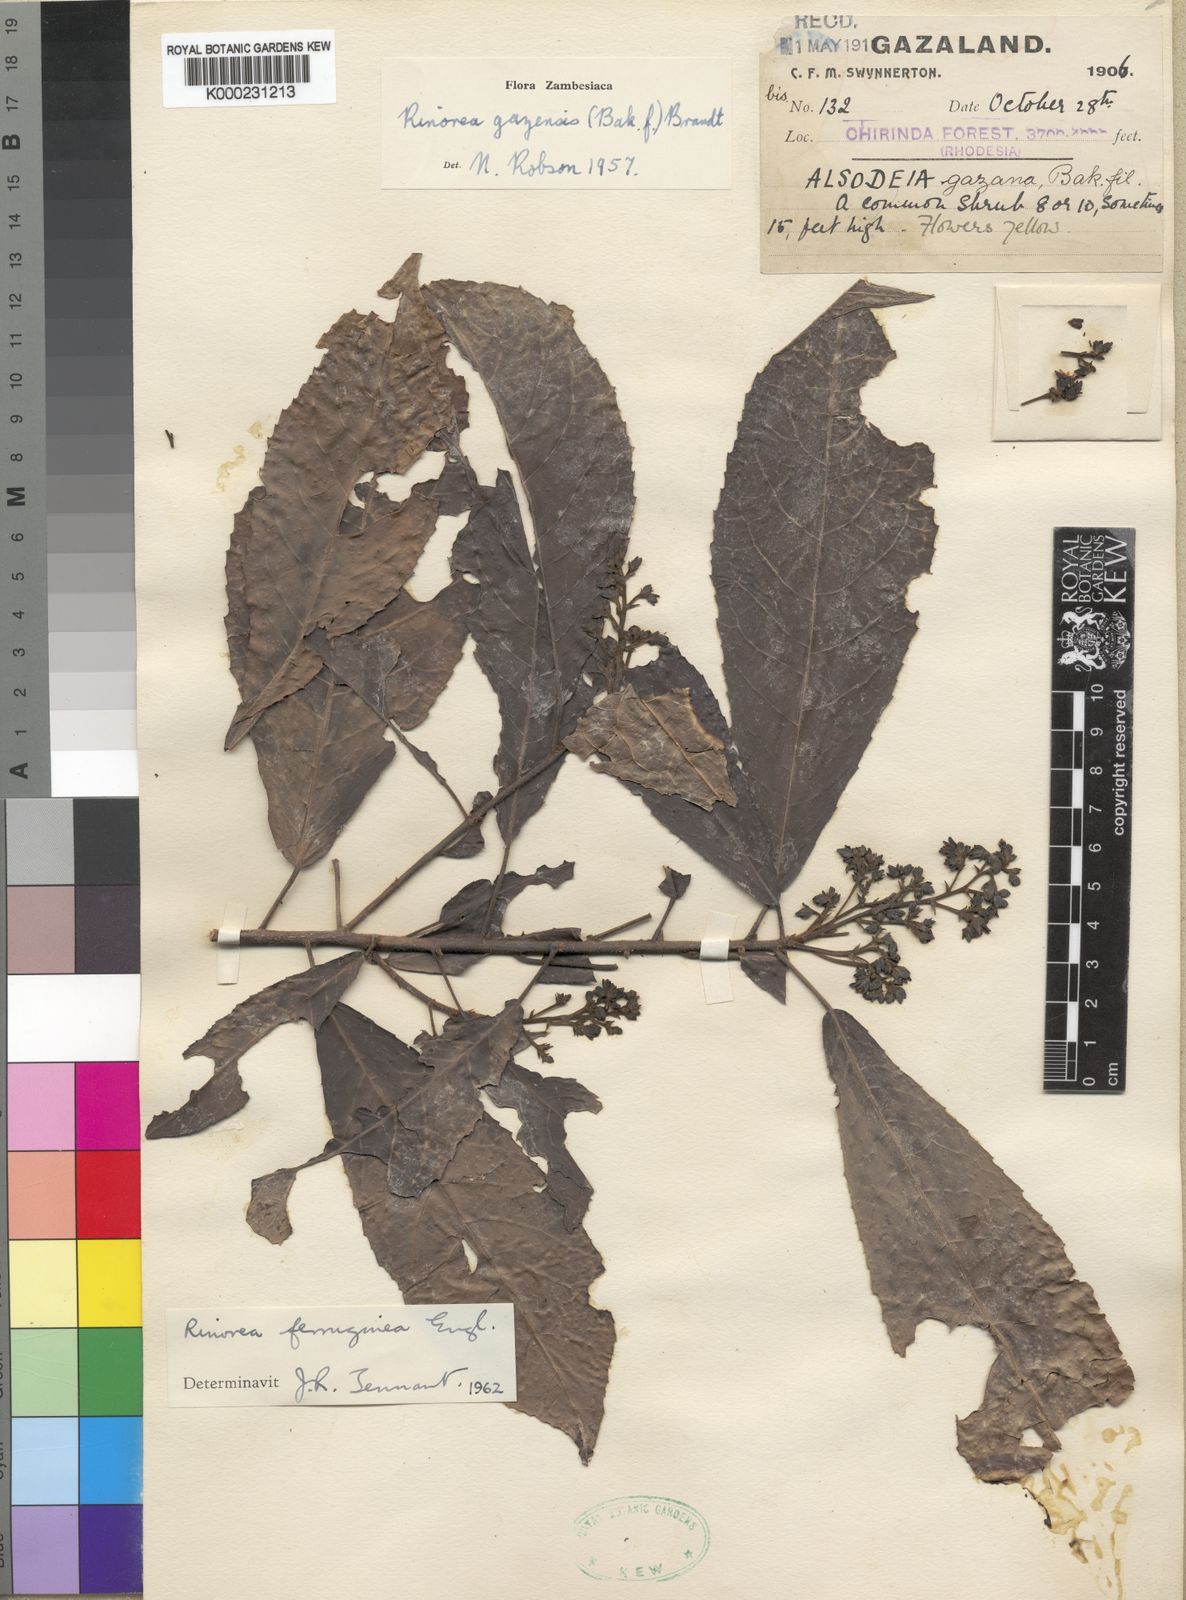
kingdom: Plantae
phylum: Tracheophyta
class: Magnoliopsida
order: Malpighiales
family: Violaceae
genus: Rinorea
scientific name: Rinorea ferruginea
